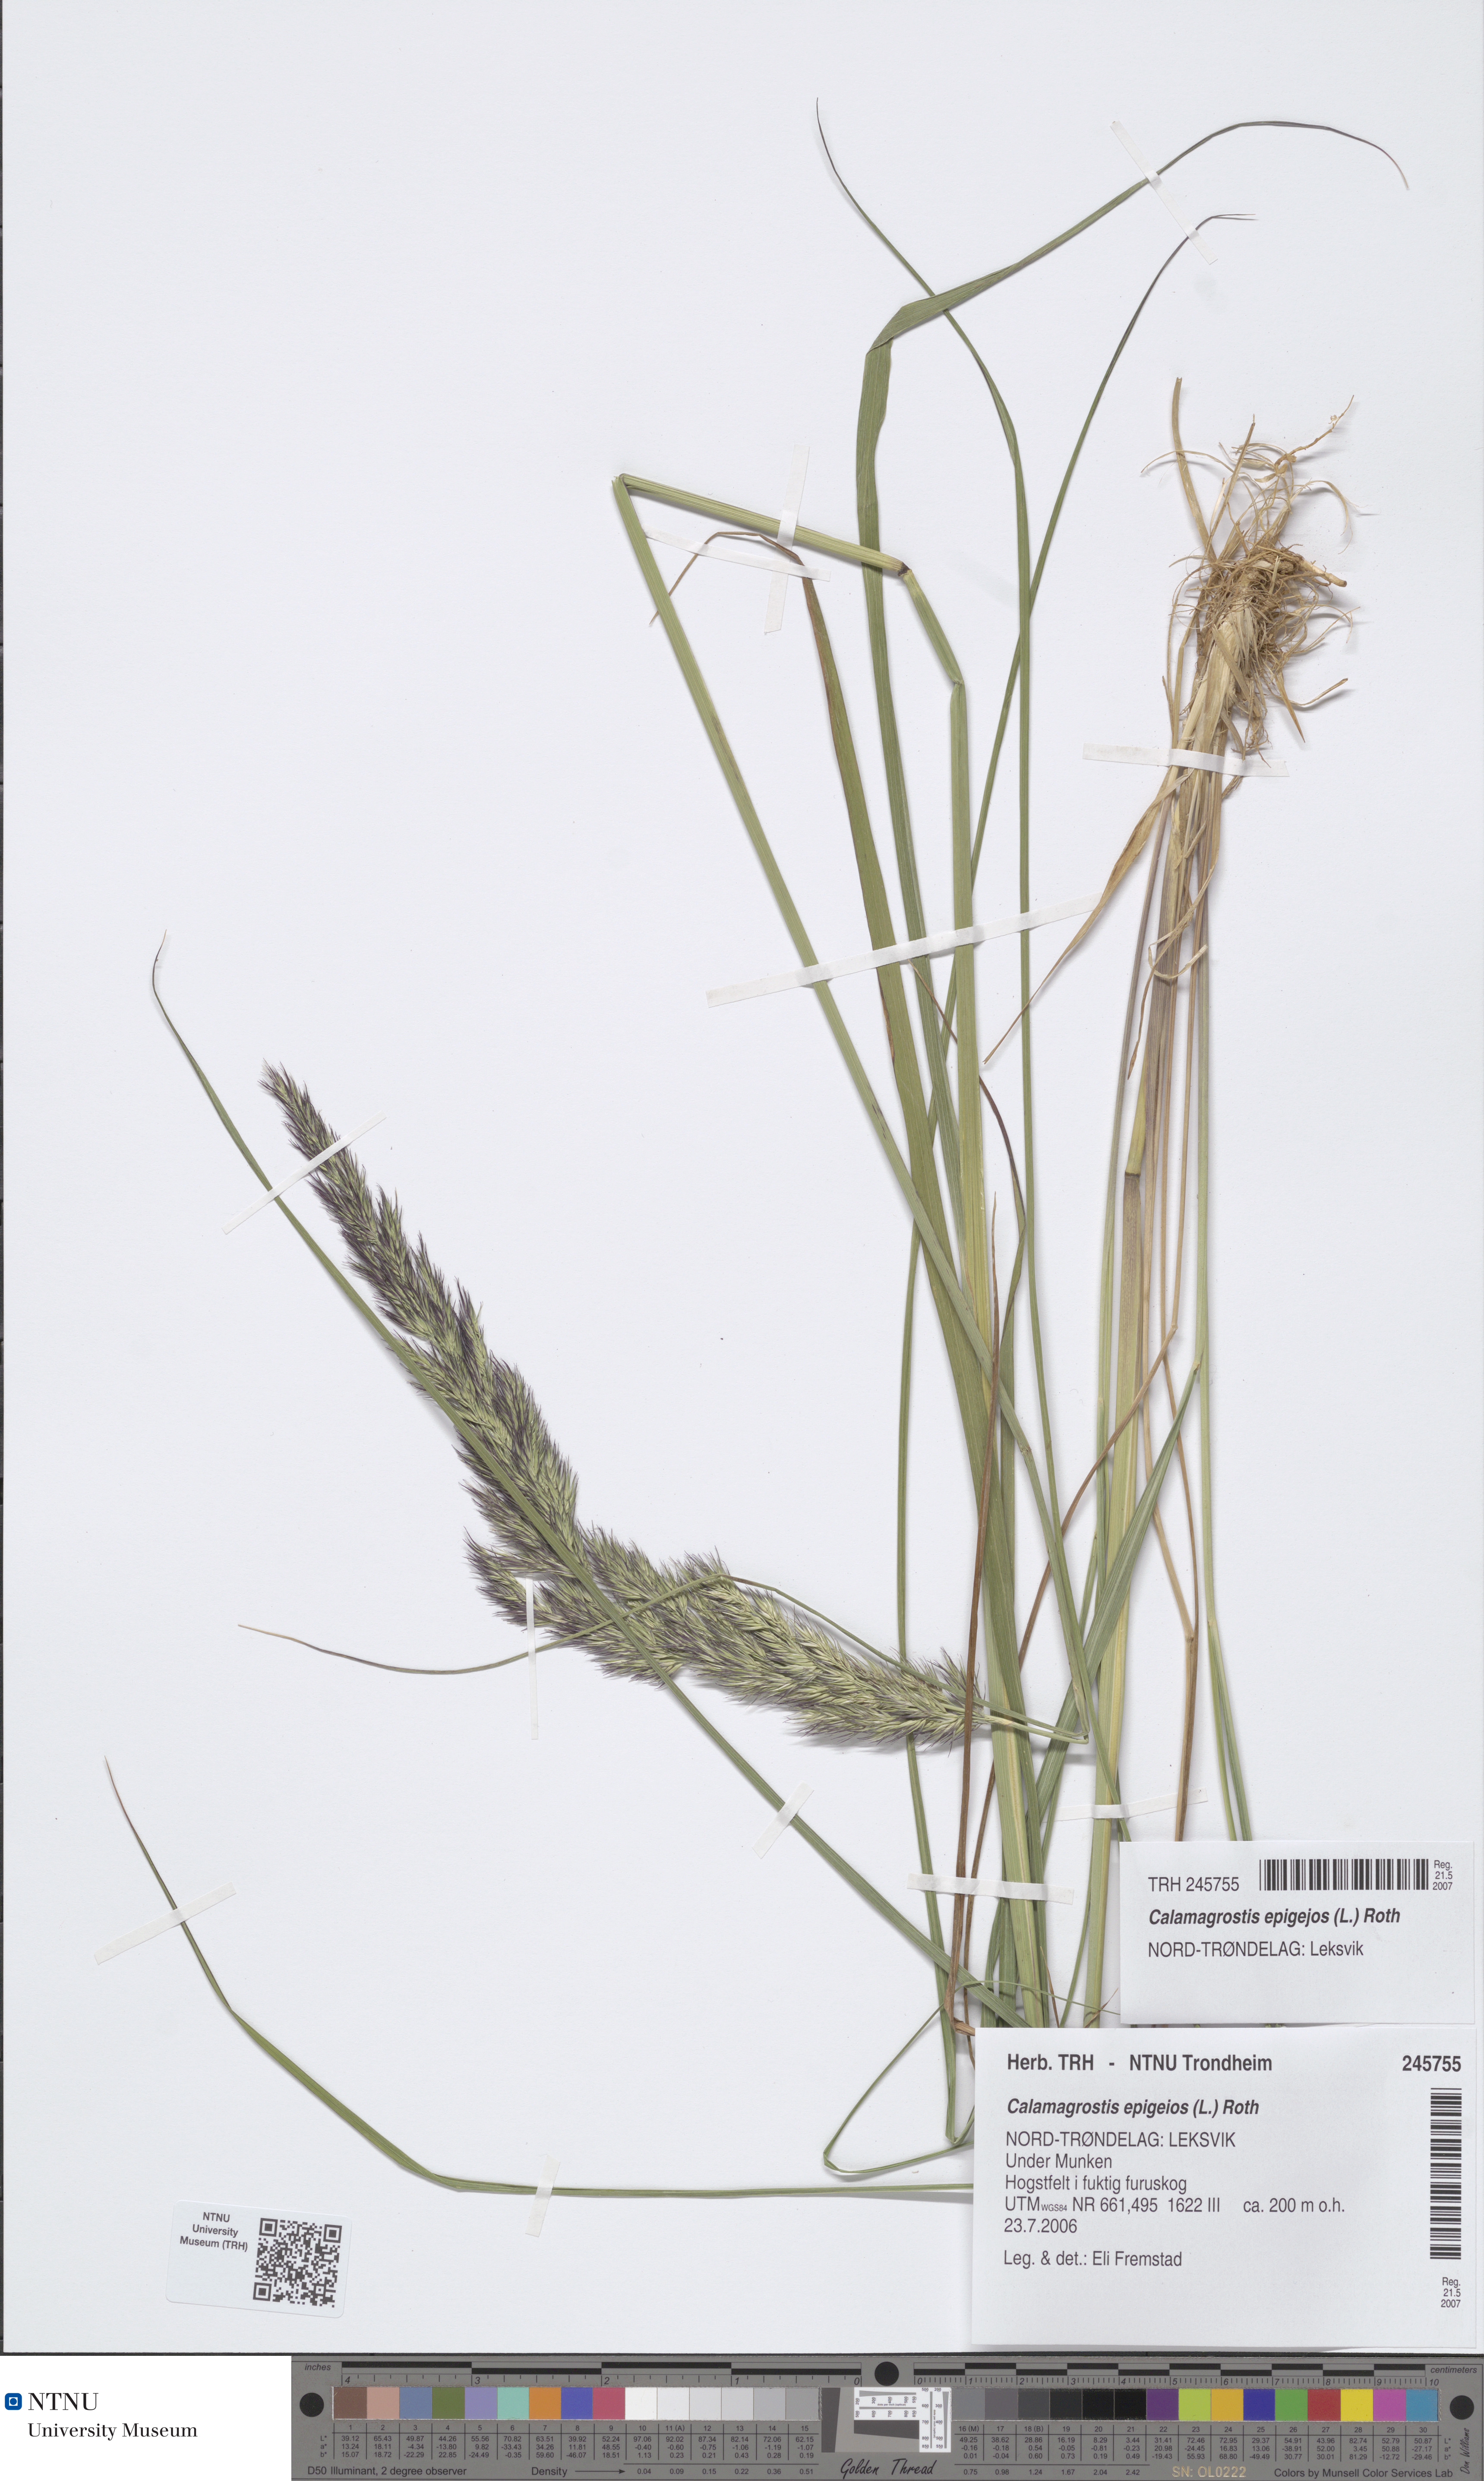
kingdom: Plantae
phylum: Tracheophyta
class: Liliopsida
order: Poales
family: Poaceae
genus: Calamagrostis
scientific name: Calamagrostis epigejos
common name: Wood small-reed
